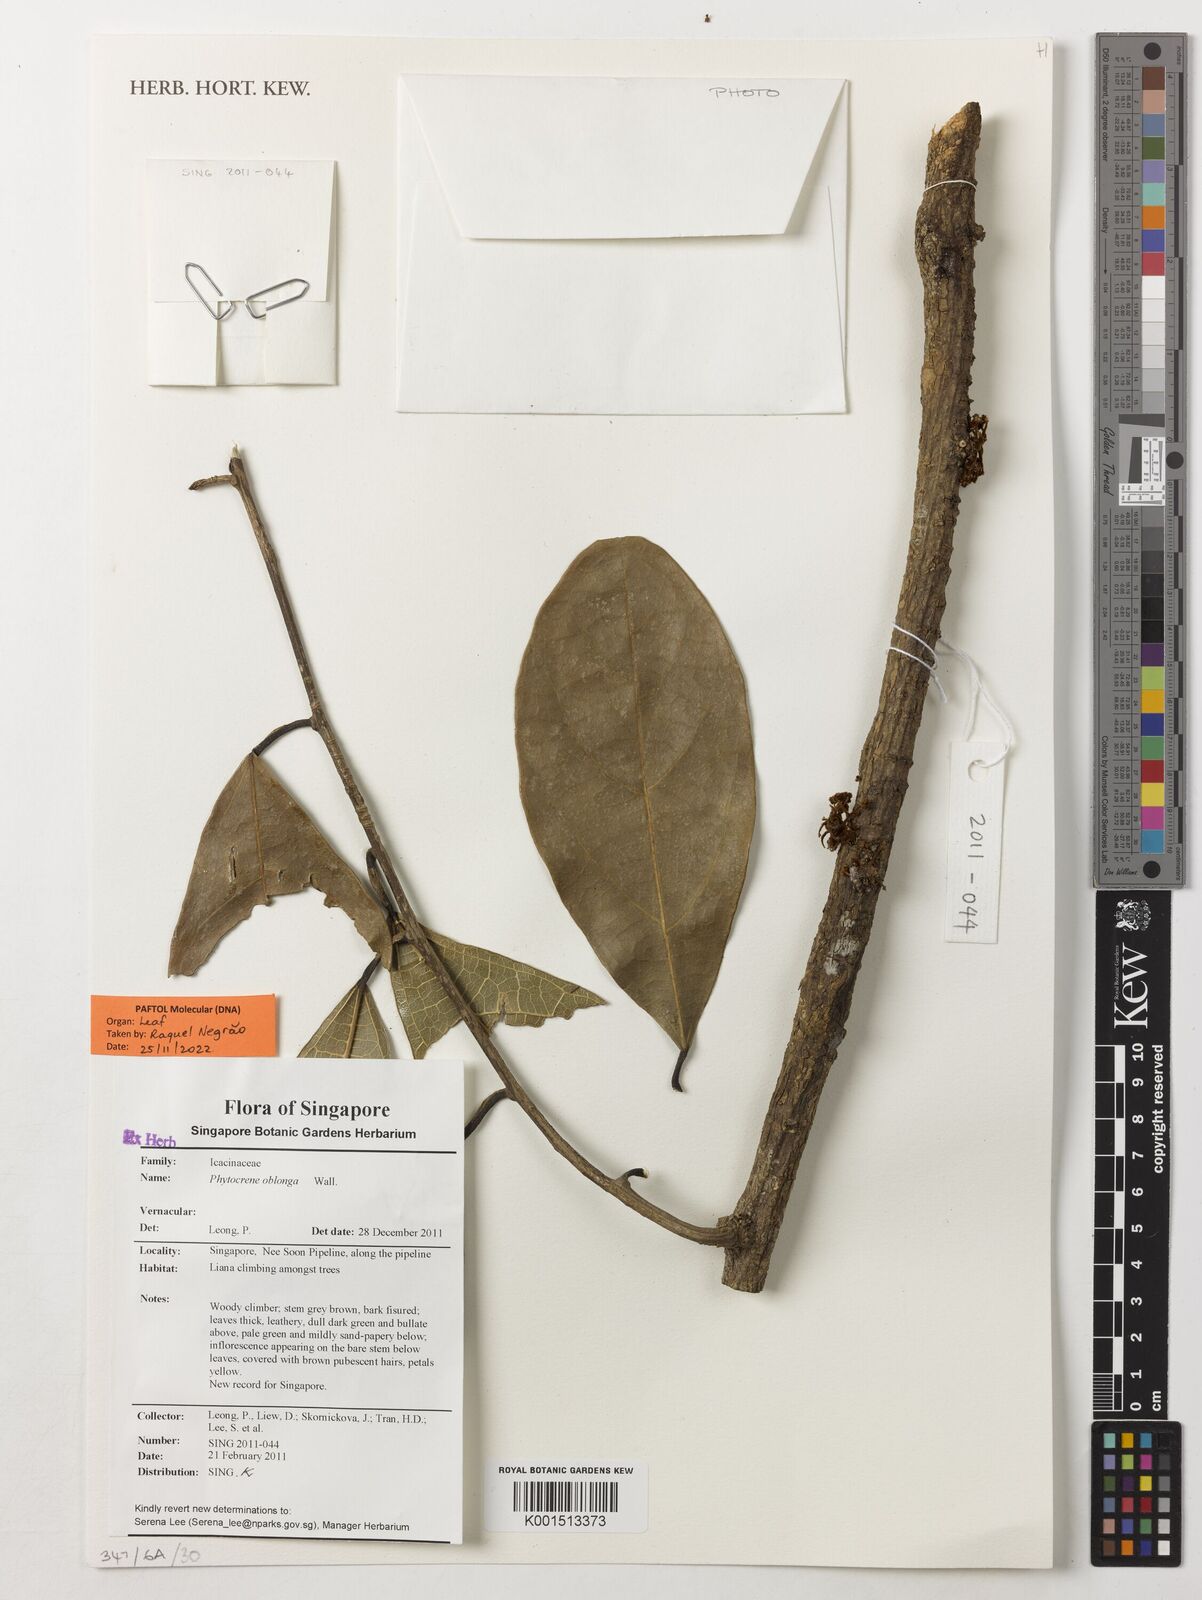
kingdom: Plantae
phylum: Tracheophyta
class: Magnoliopsida
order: Icacinales
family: Icacinaceae
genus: Phytocrene
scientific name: Phytocrene oblonga
